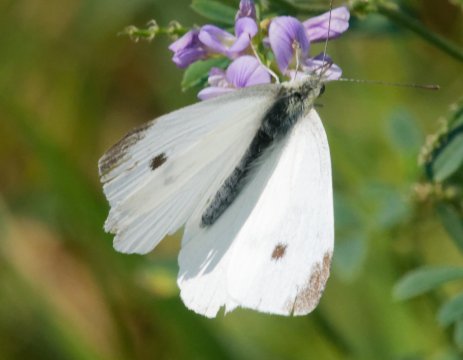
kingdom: Animalia
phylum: Arthropoda
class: Insecta
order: Lepidoptera
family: Pieridae
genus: Pieris
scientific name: Pieris rapae
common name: Cabbage White
